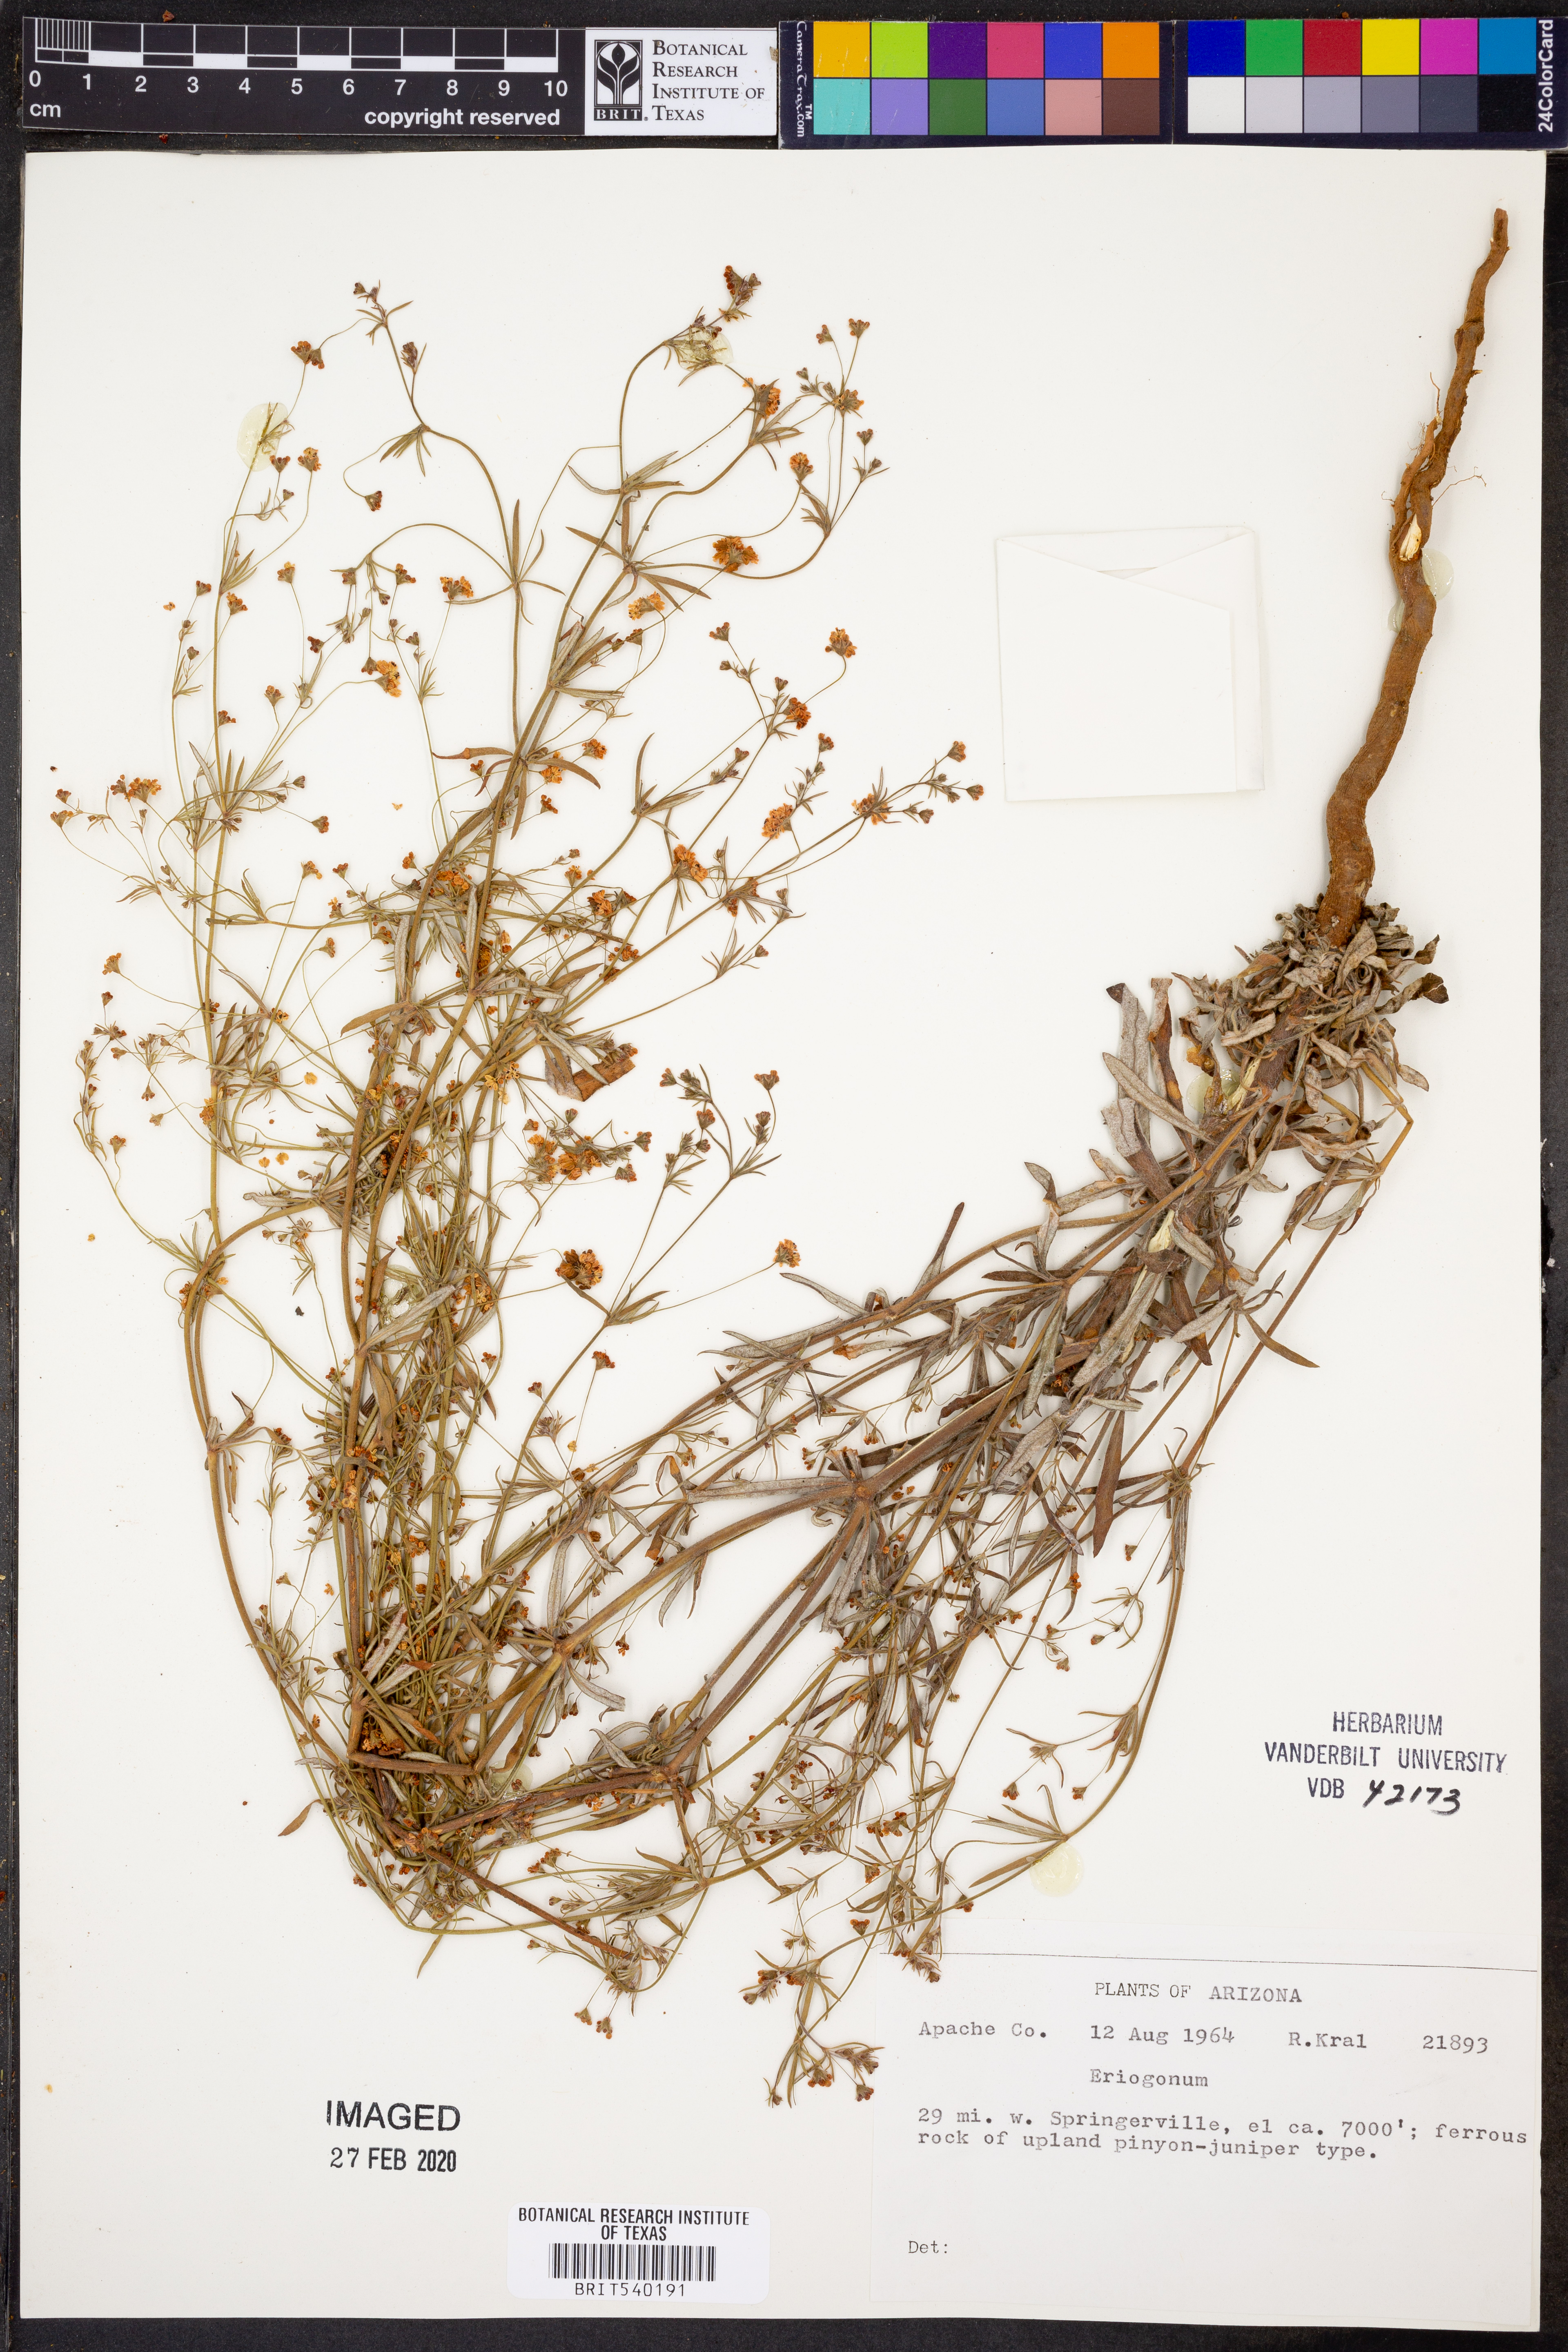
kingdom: Plantae
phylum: Tracheophyta
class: Magnoliopsida
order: Caryophyllales
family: Polygonaceae
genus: Eriogonum
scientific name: Eriogonum
